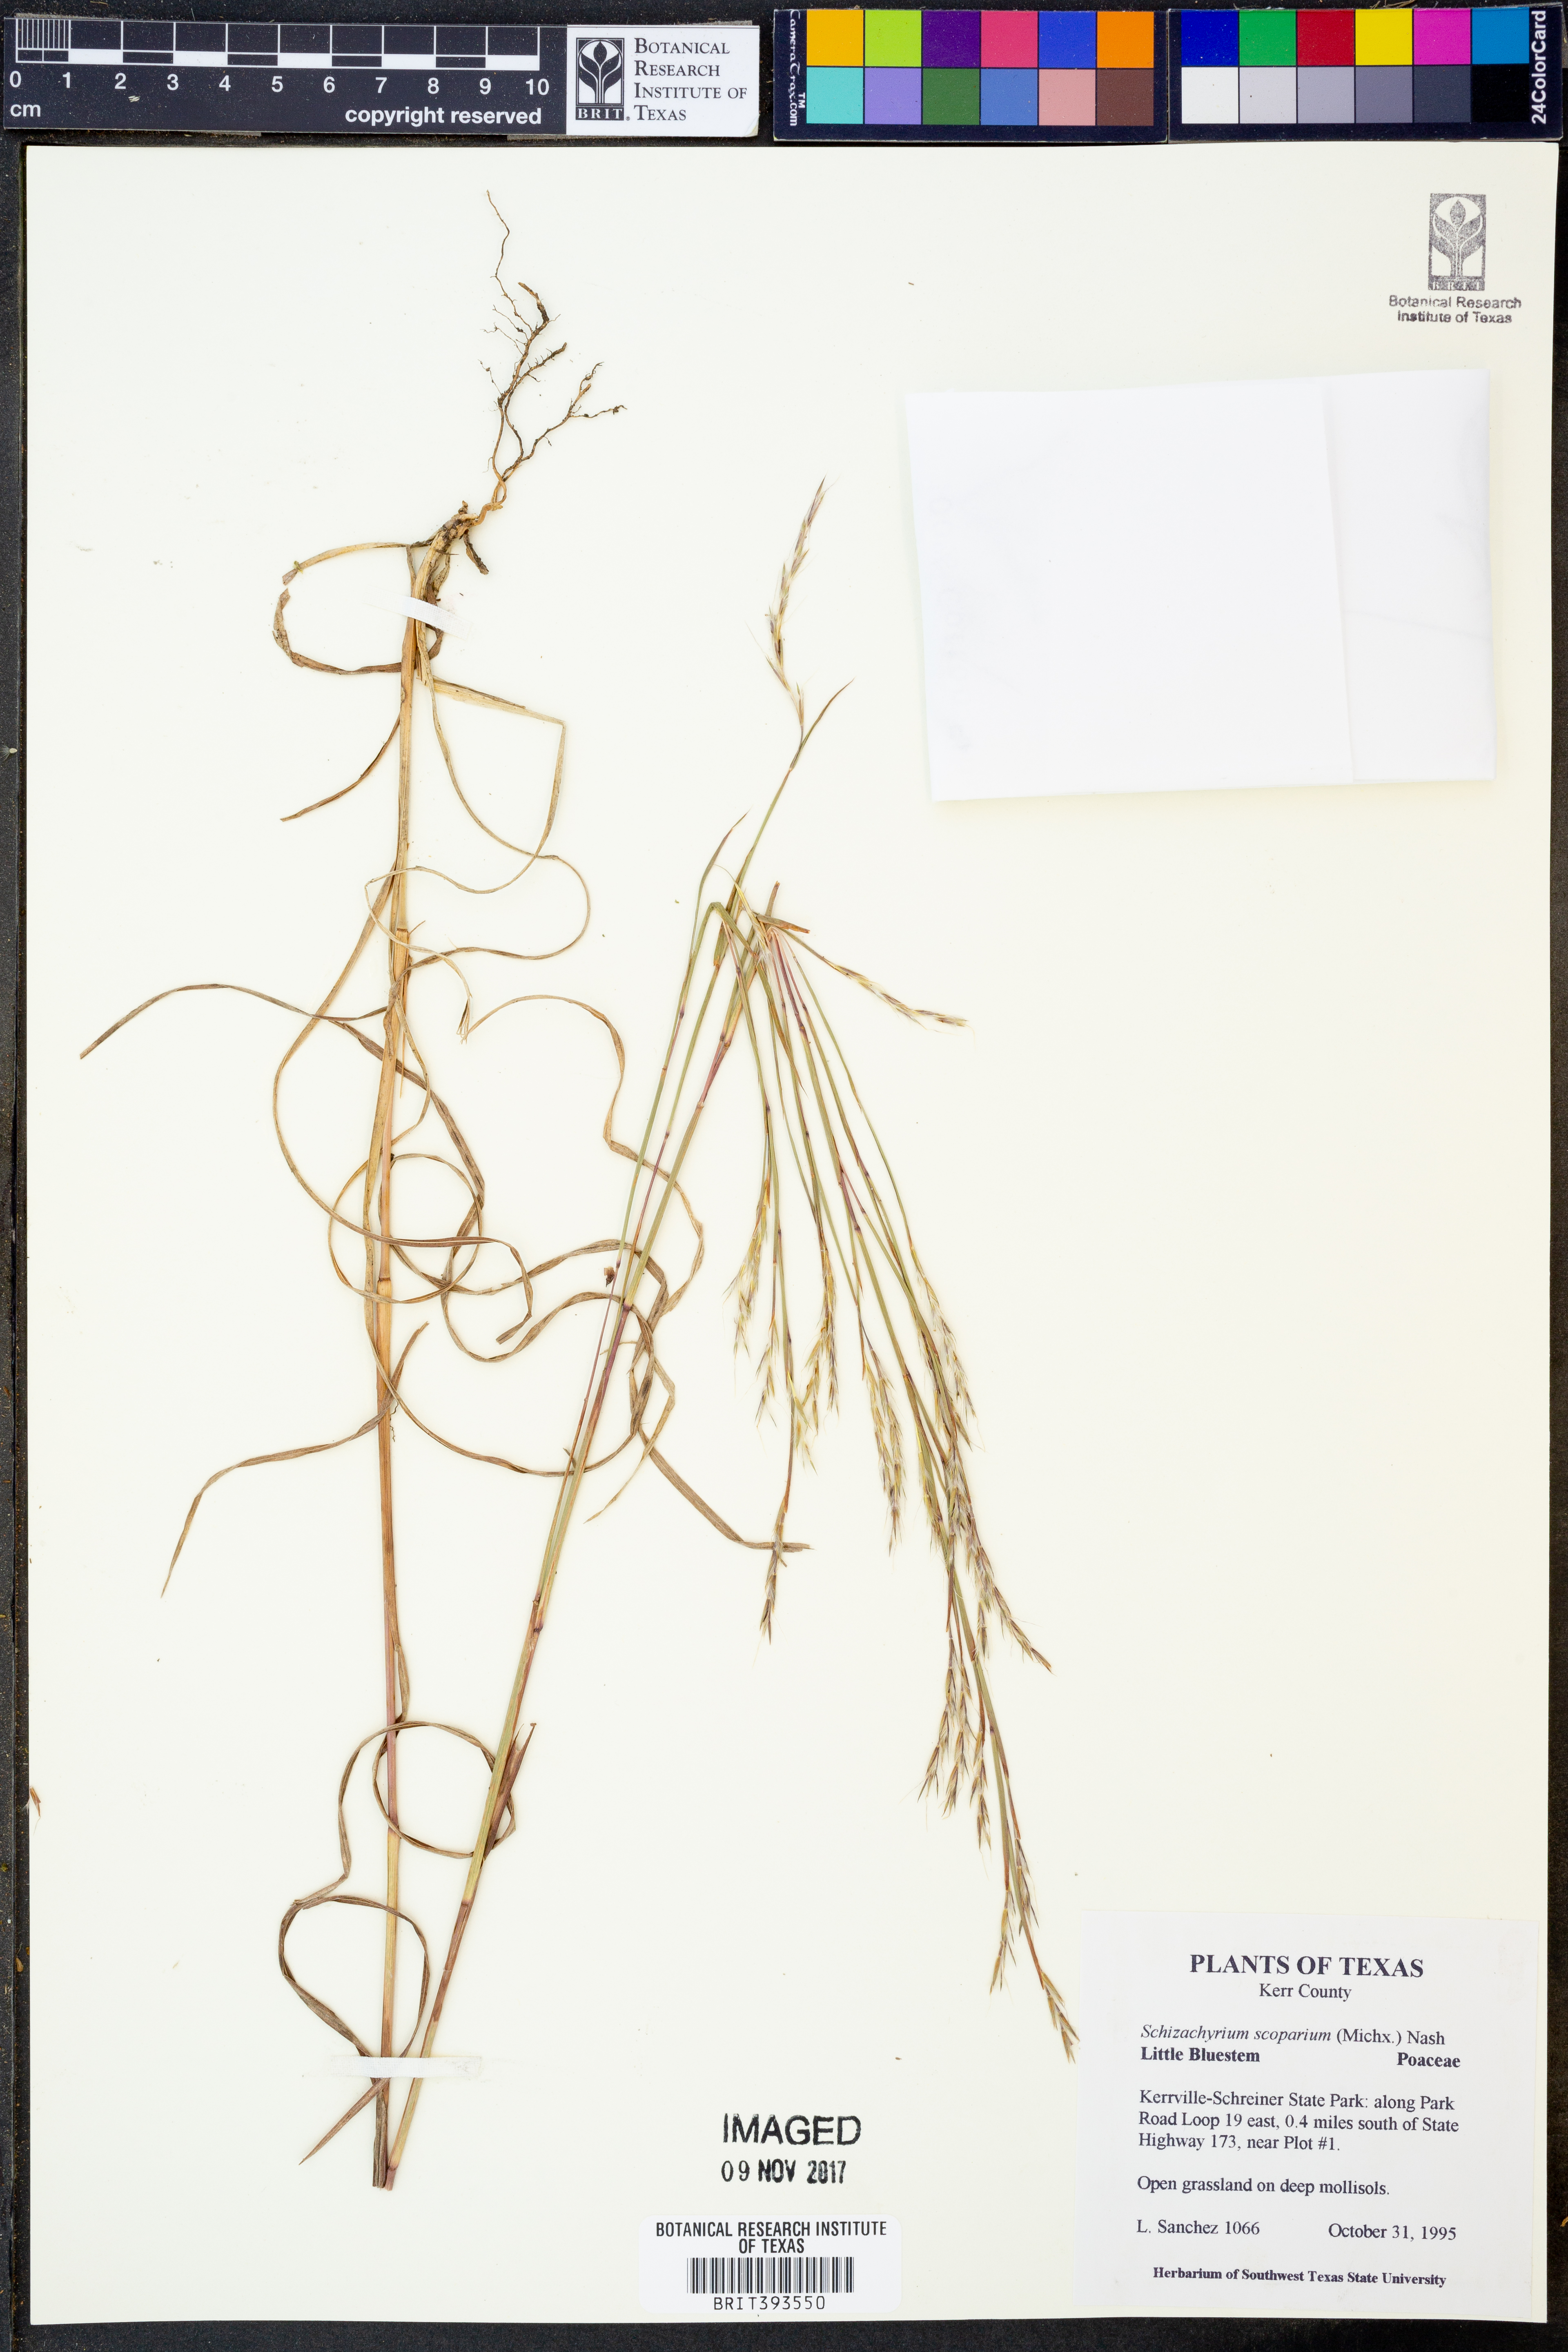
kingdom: Plantae
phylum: Tracheophyta
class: Liliopsida
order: Poales
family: Poaceae
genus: Schizachyrium
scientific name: Schizachyrium scoparium
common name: Little bluestem
